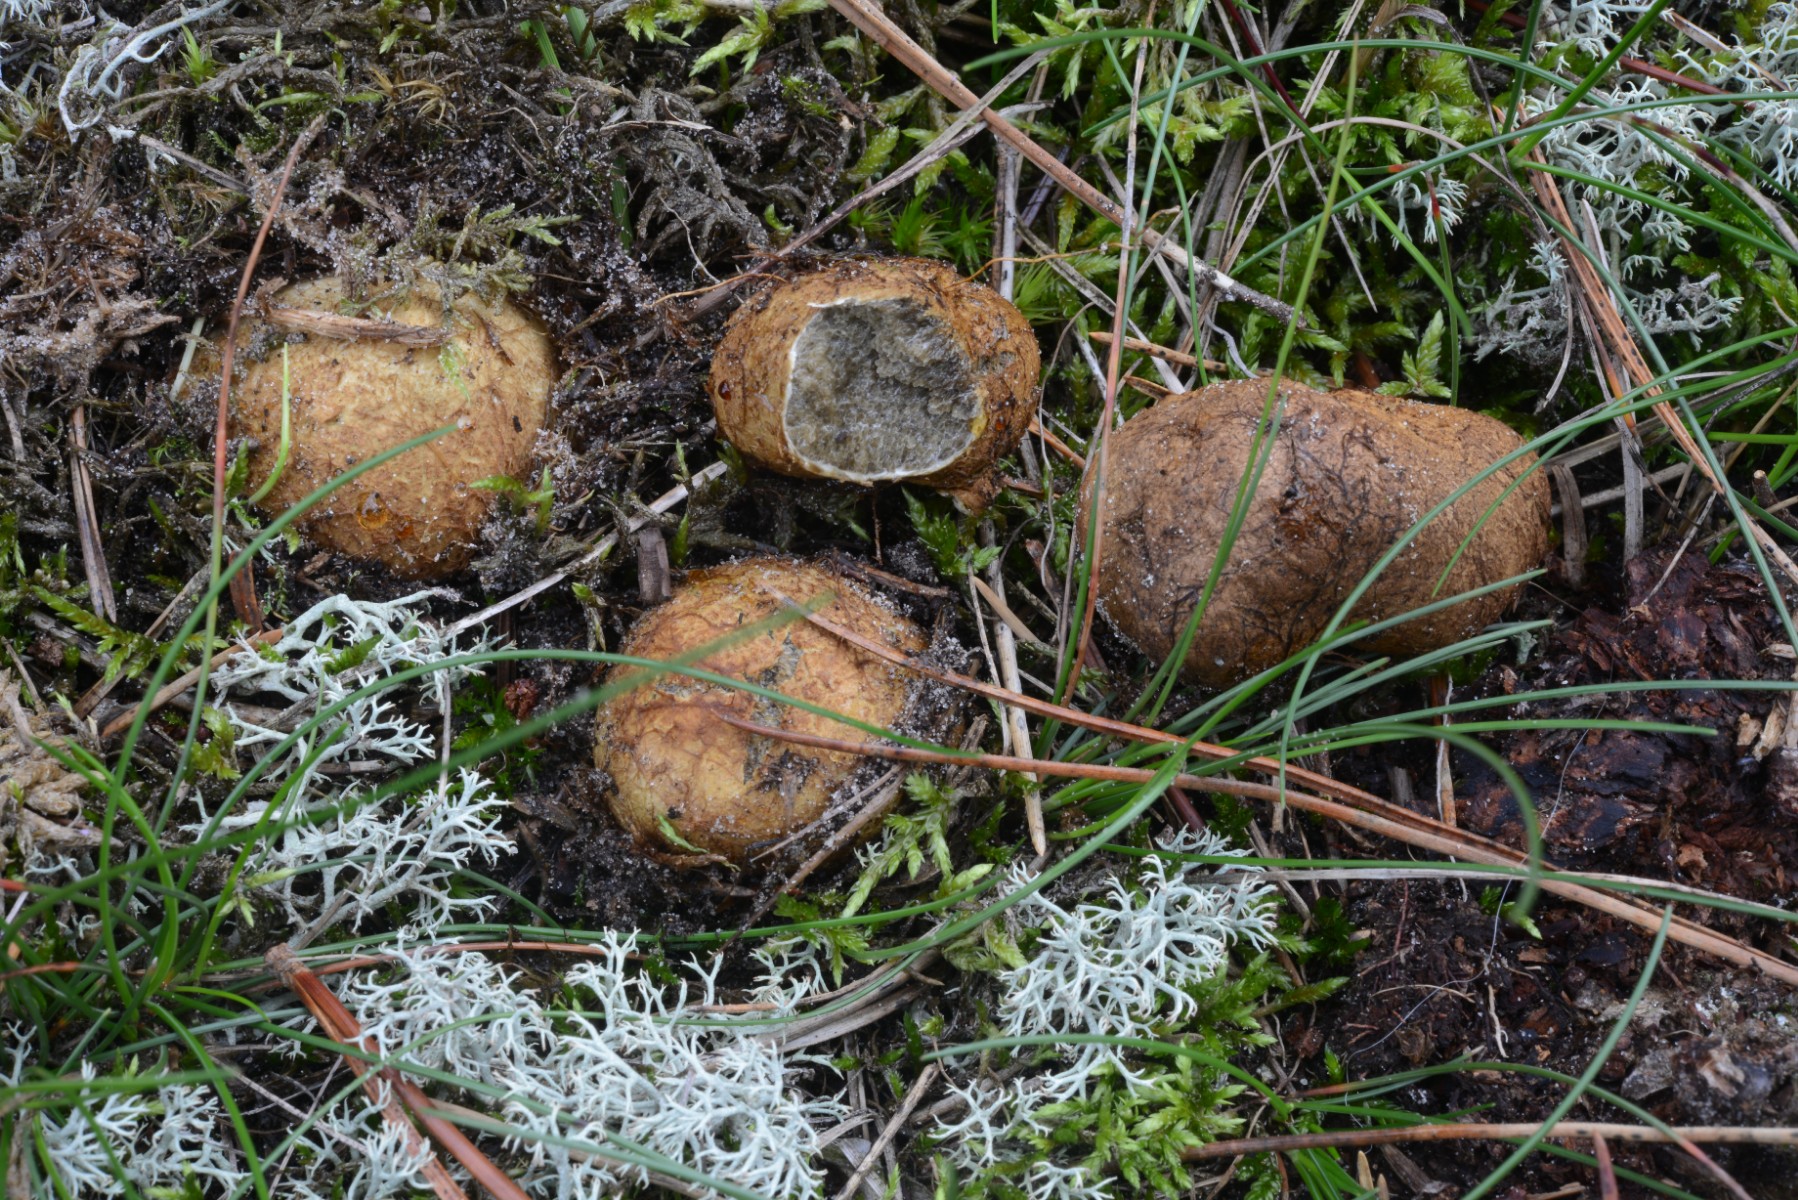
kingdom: Fungi
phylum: Basidiomycota
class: Agaricomycetes
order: Boletales
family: Rhizopogonaceae
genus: Rhizopogon
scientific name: Rhizopogon obtextus
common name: gul skægtrøffel
